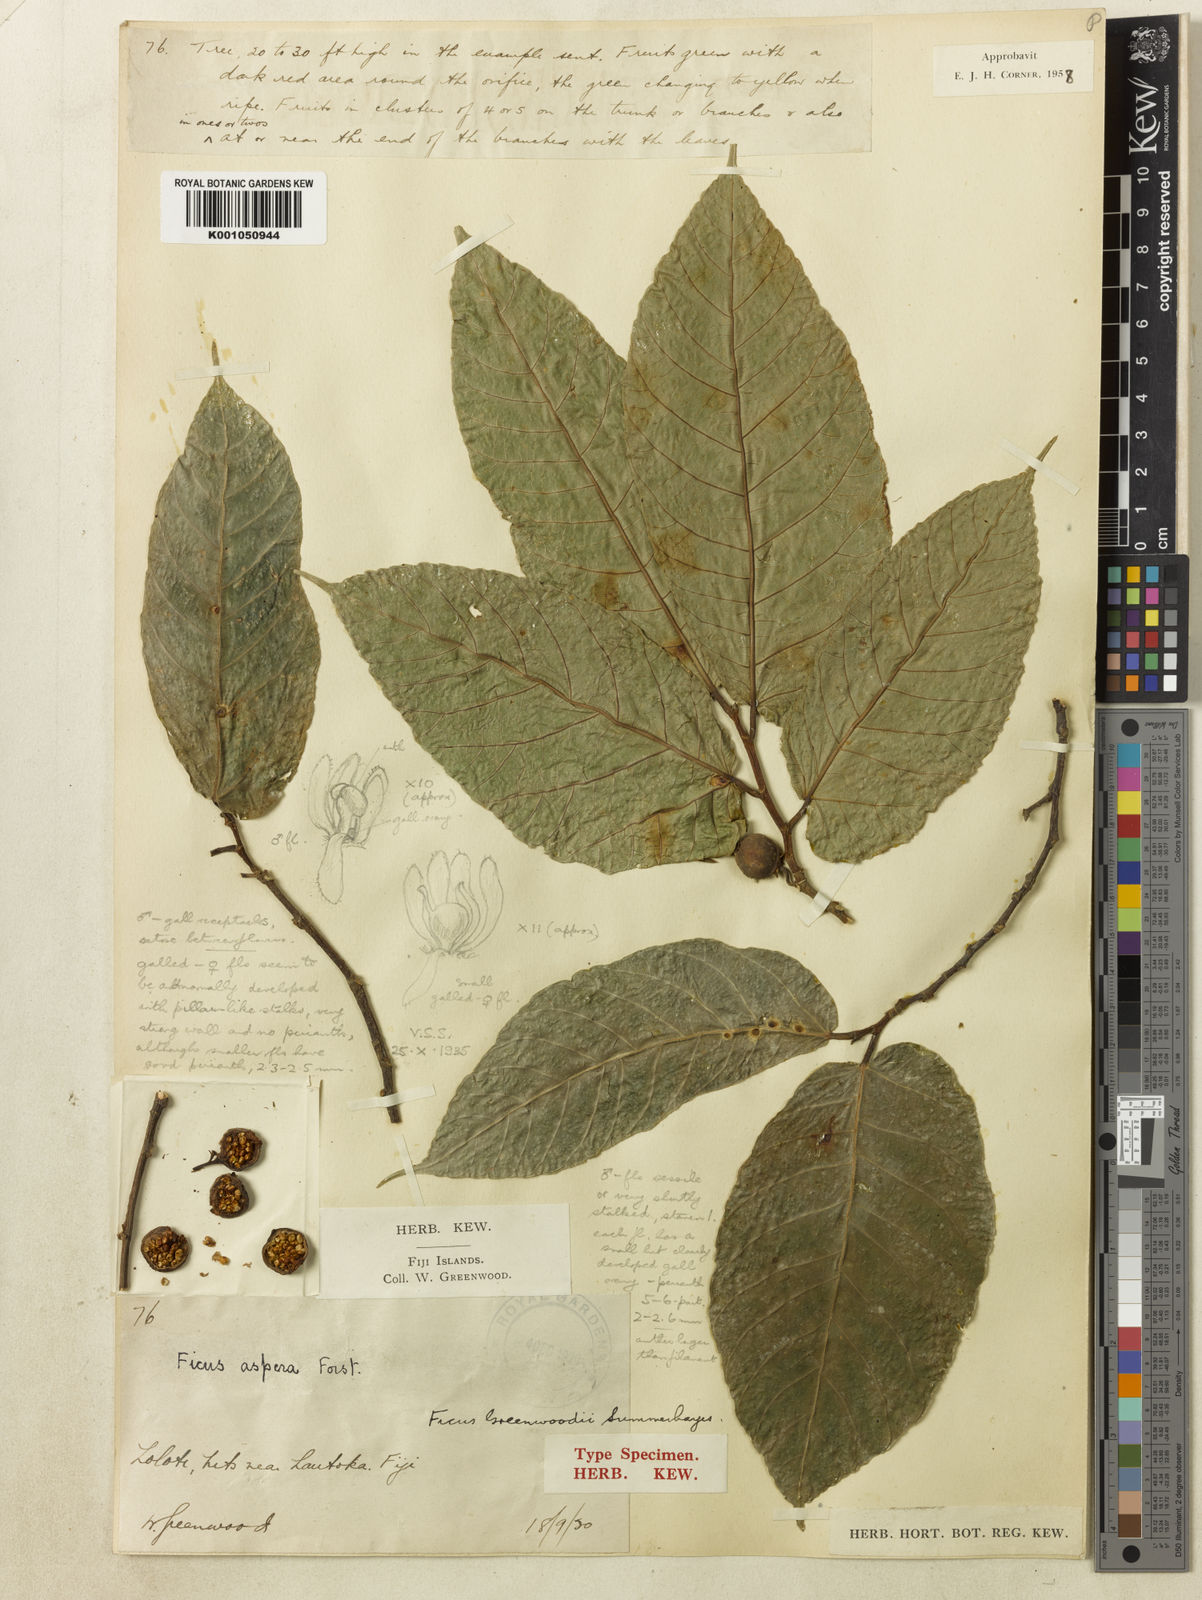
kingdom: Plantae
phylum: Tracheophyta
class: Magnoliopsida
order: Rosales
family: Moraceae
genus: Ficus
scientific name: Ficus greenwoodii
